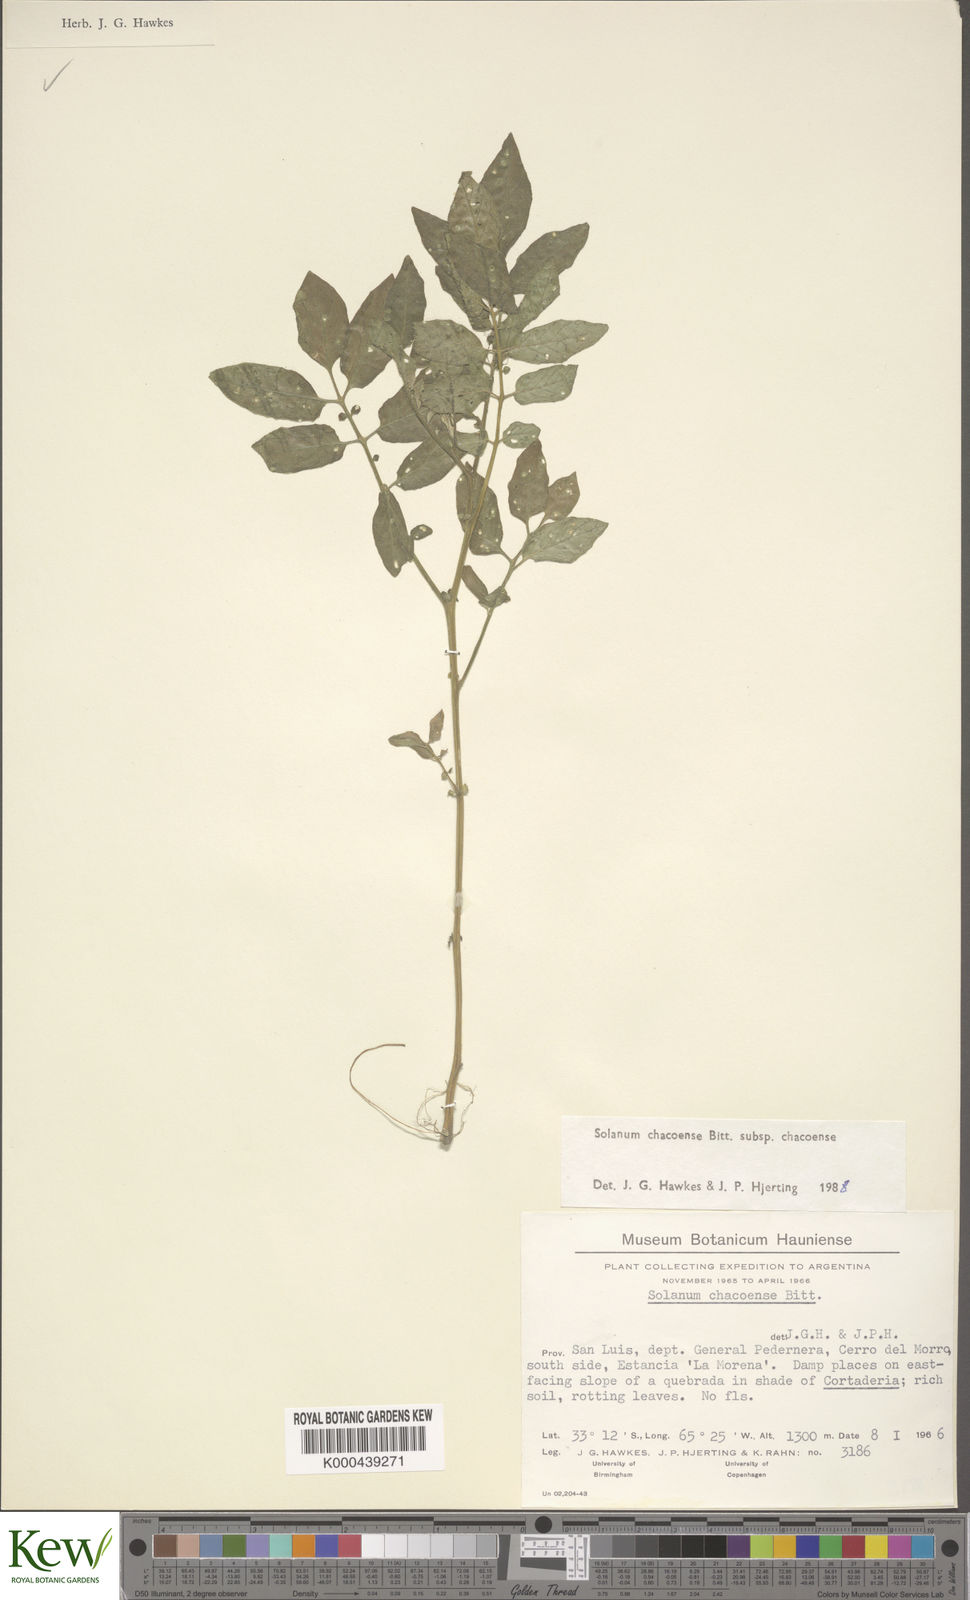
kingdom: Plantae
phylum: Tracheophyta
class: Magnoliopsida
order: Solanales
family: Solanaceae
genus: Solanum
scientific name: Solanum chacoense
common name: Chaco potato
